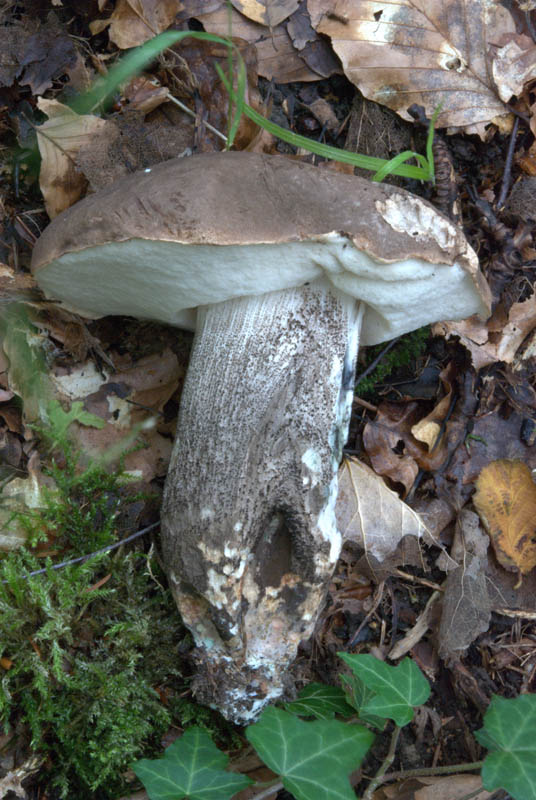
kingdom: Fungi
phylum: Basidiomycota
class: Agaricomycetes
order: Boletales
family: Boletaceae
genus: Leccinum
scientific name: Leccinum duriusculum
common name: poppel-skælrørhat
